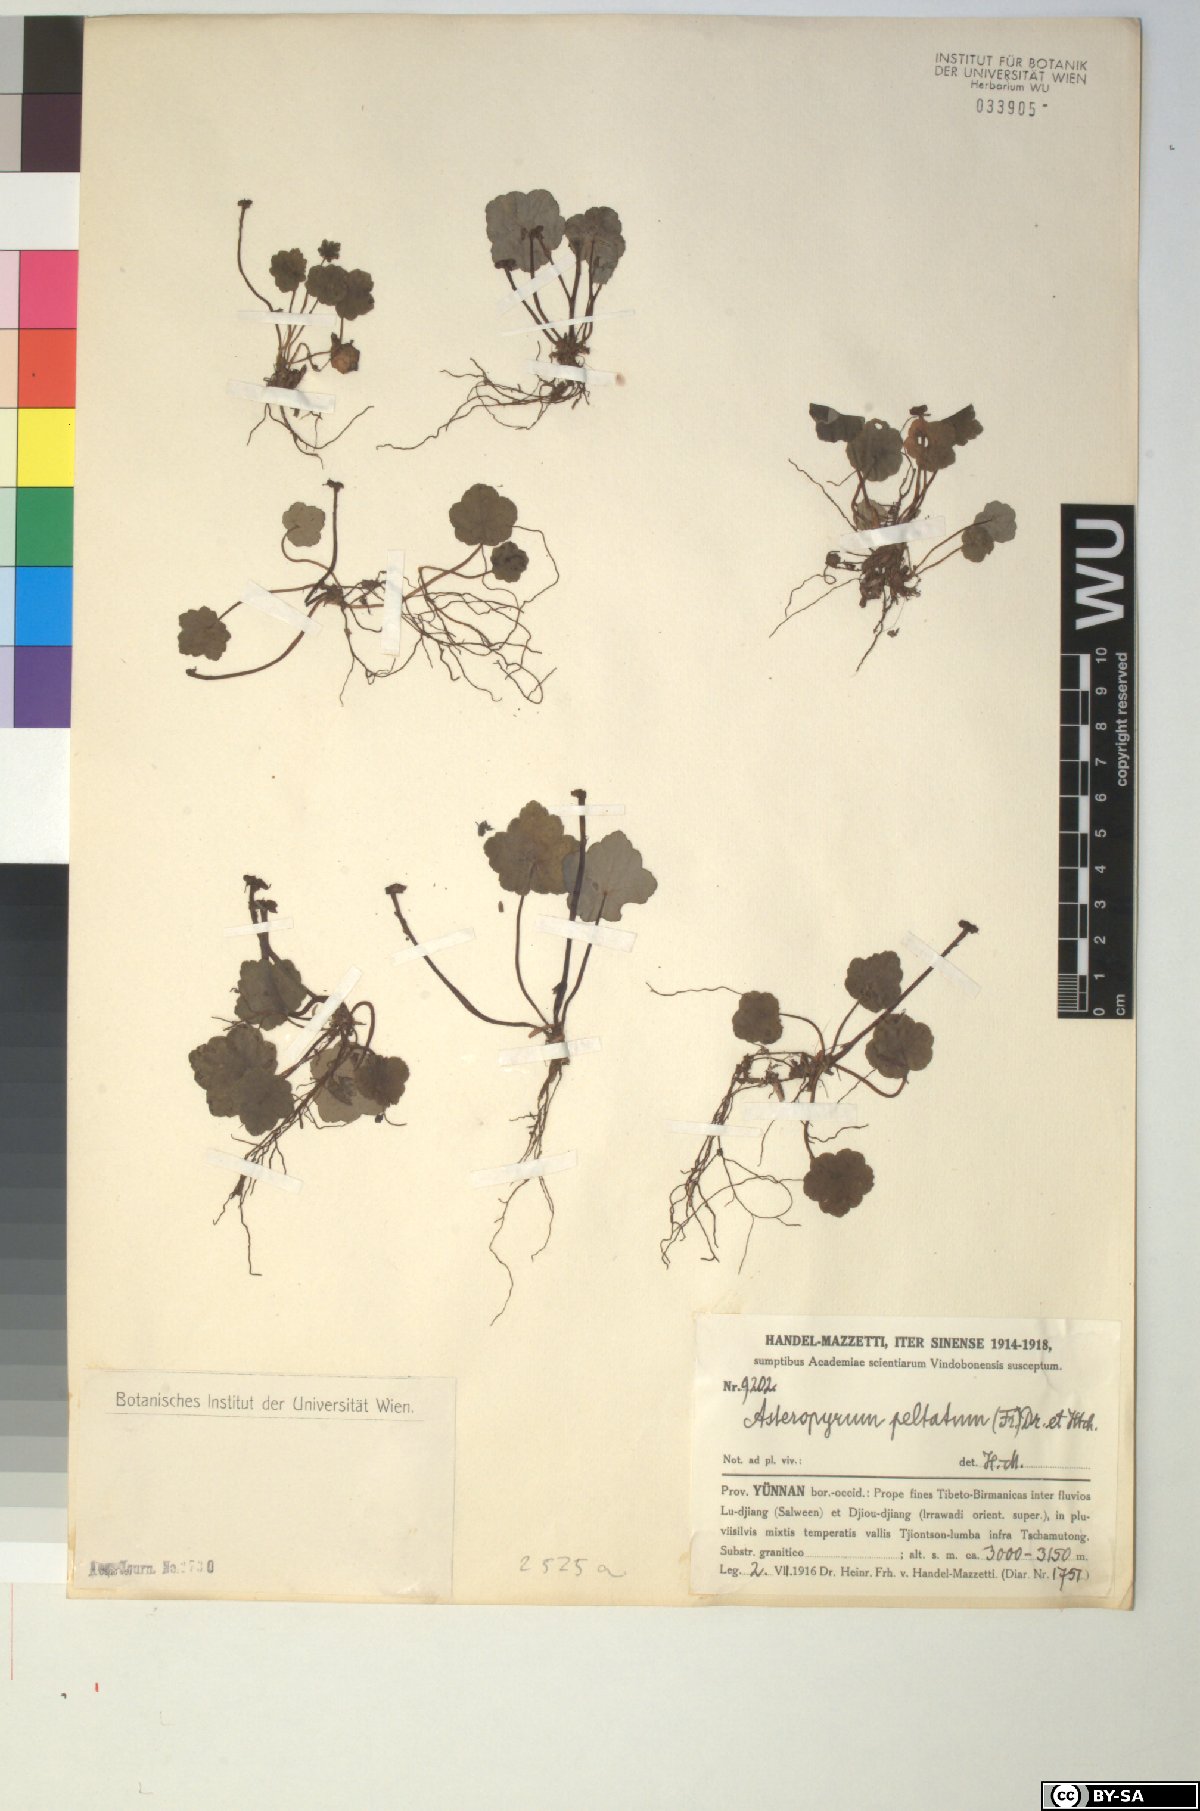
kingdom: Plantae
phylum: Tracheophyta
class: Magnoliopsida
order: Ranunculales
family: Ranunculaceae
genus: Asteropyrum
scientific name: Asteropyrum peltatum
